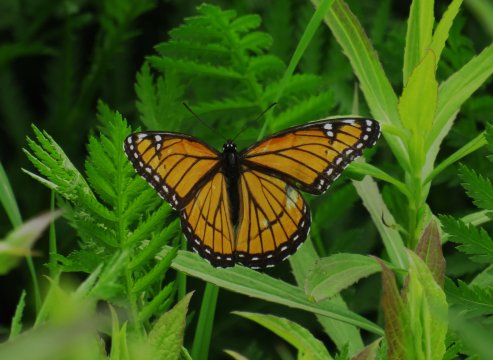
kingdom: Animalia
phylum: Arthropoda
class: Insecta
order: Lepidoptera
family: Nymphalidae
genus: Limenitis
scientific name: Limenitis archippus
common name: Viceroy
